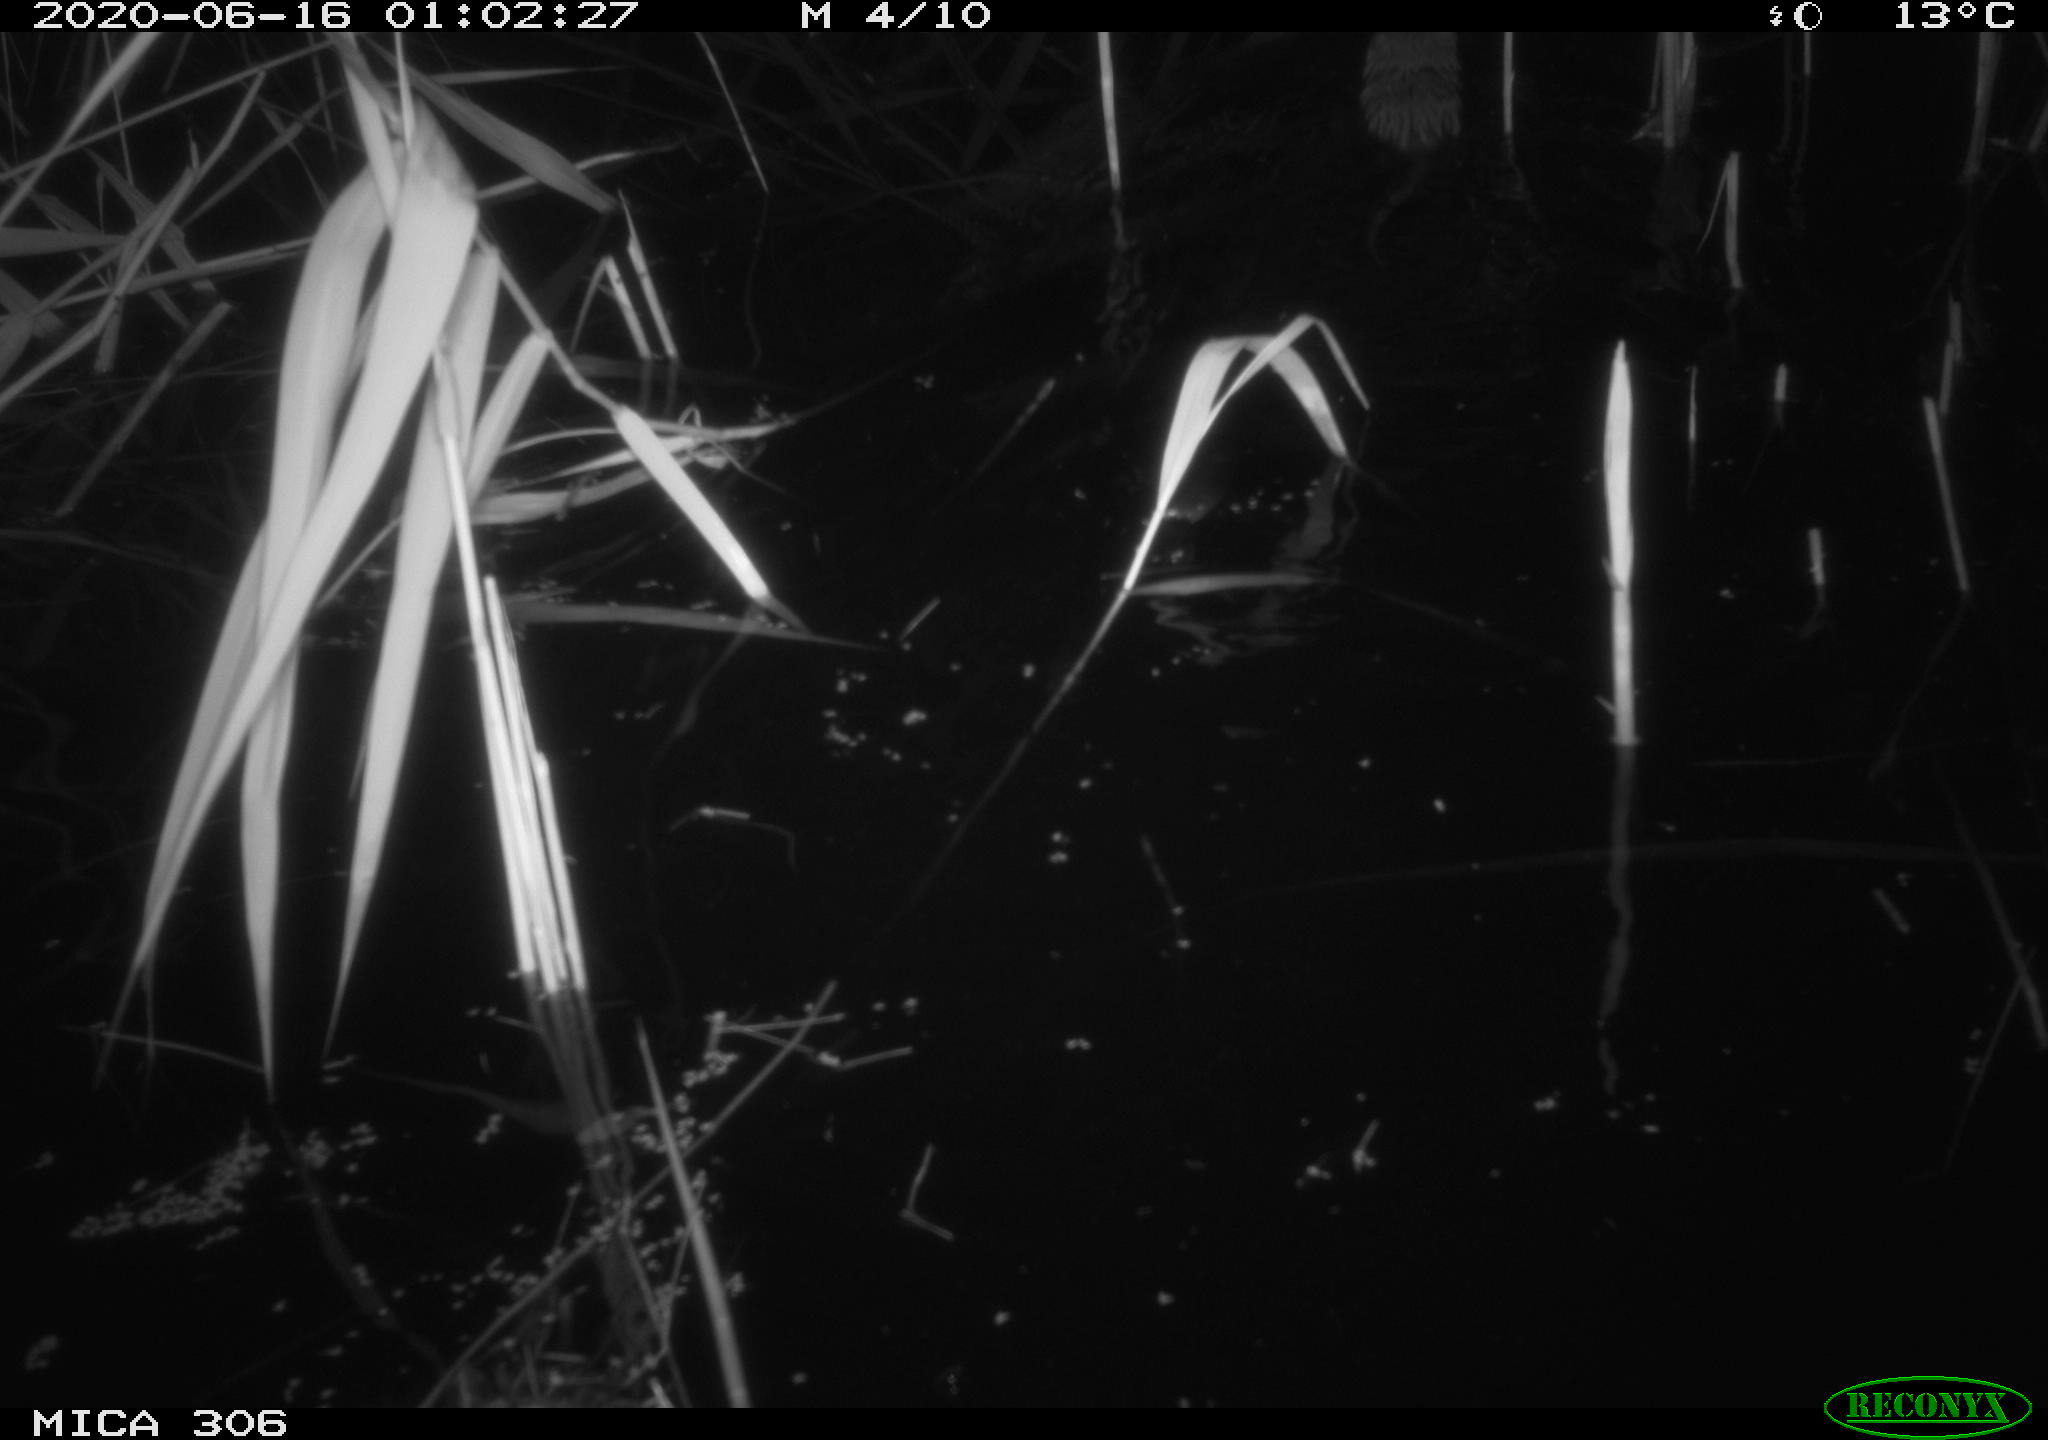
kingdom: Animalia
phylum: Chordata
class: Mammalia
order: Rodentia
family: Muridae
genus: Rattus
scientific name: Rattus norvegicus
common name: Brown rat
